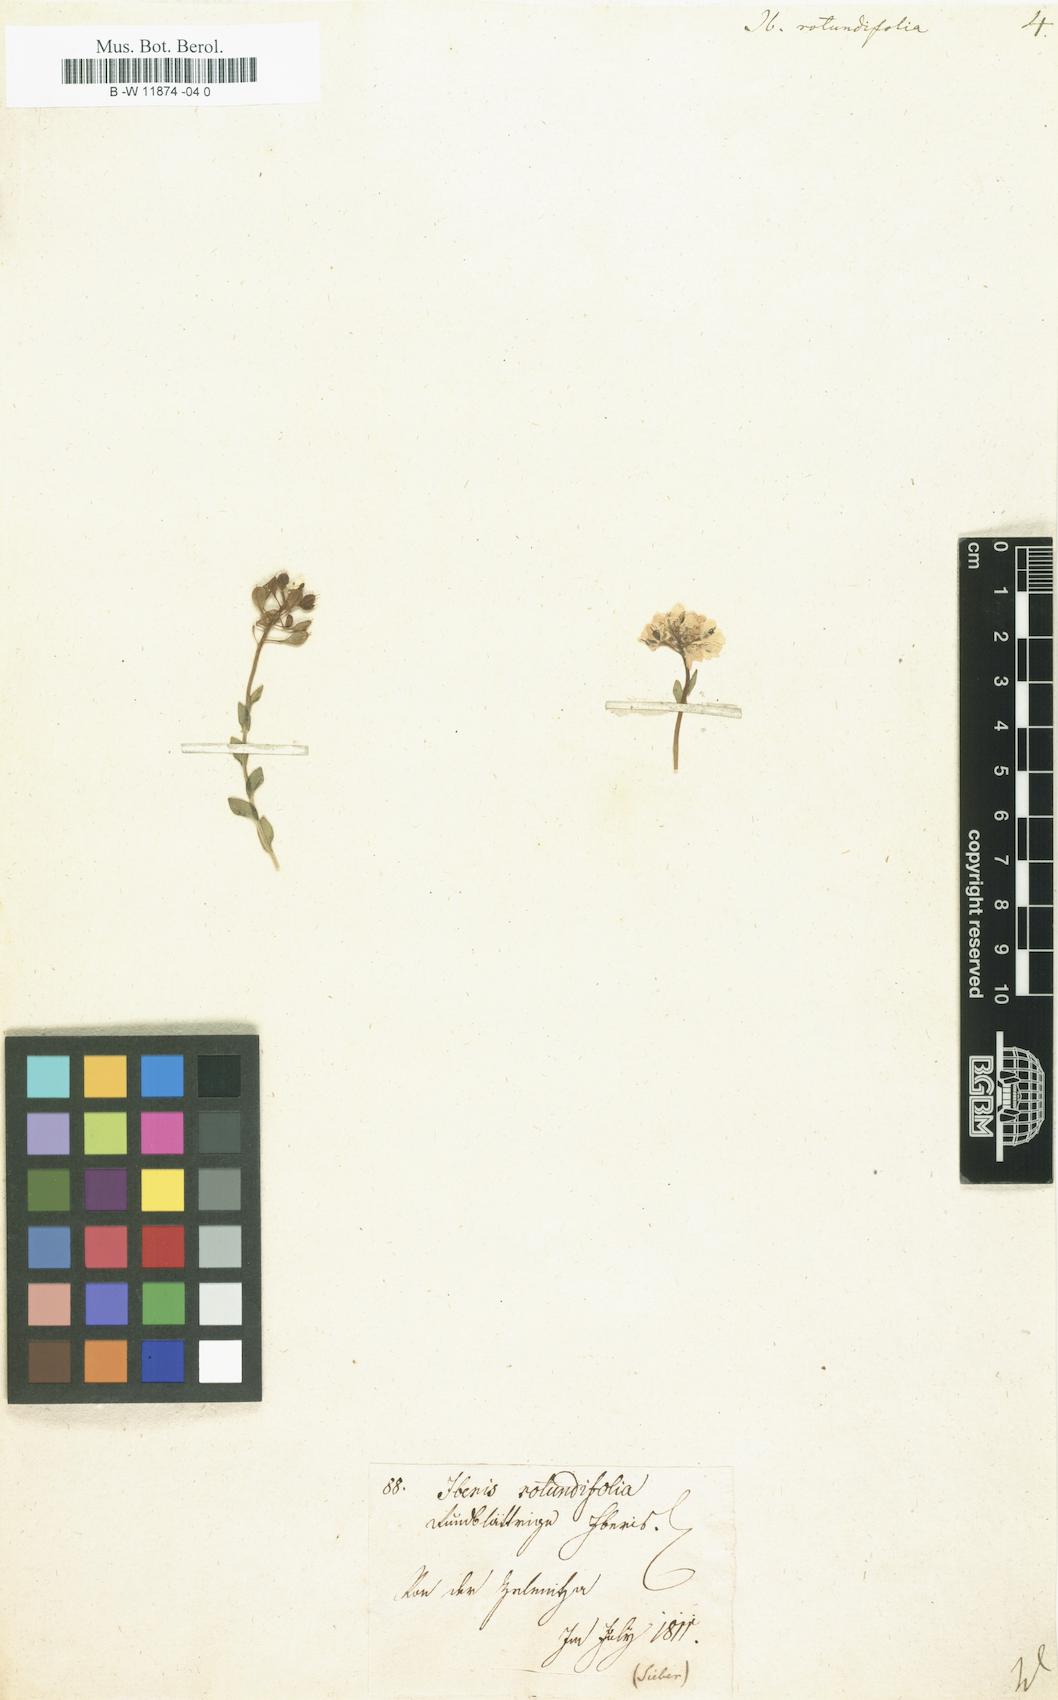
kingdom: Plantae
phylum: Tracheophyta
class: Magnoliopsida
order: Brassicales
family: Brassicaceae
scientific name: Brassicaceae
